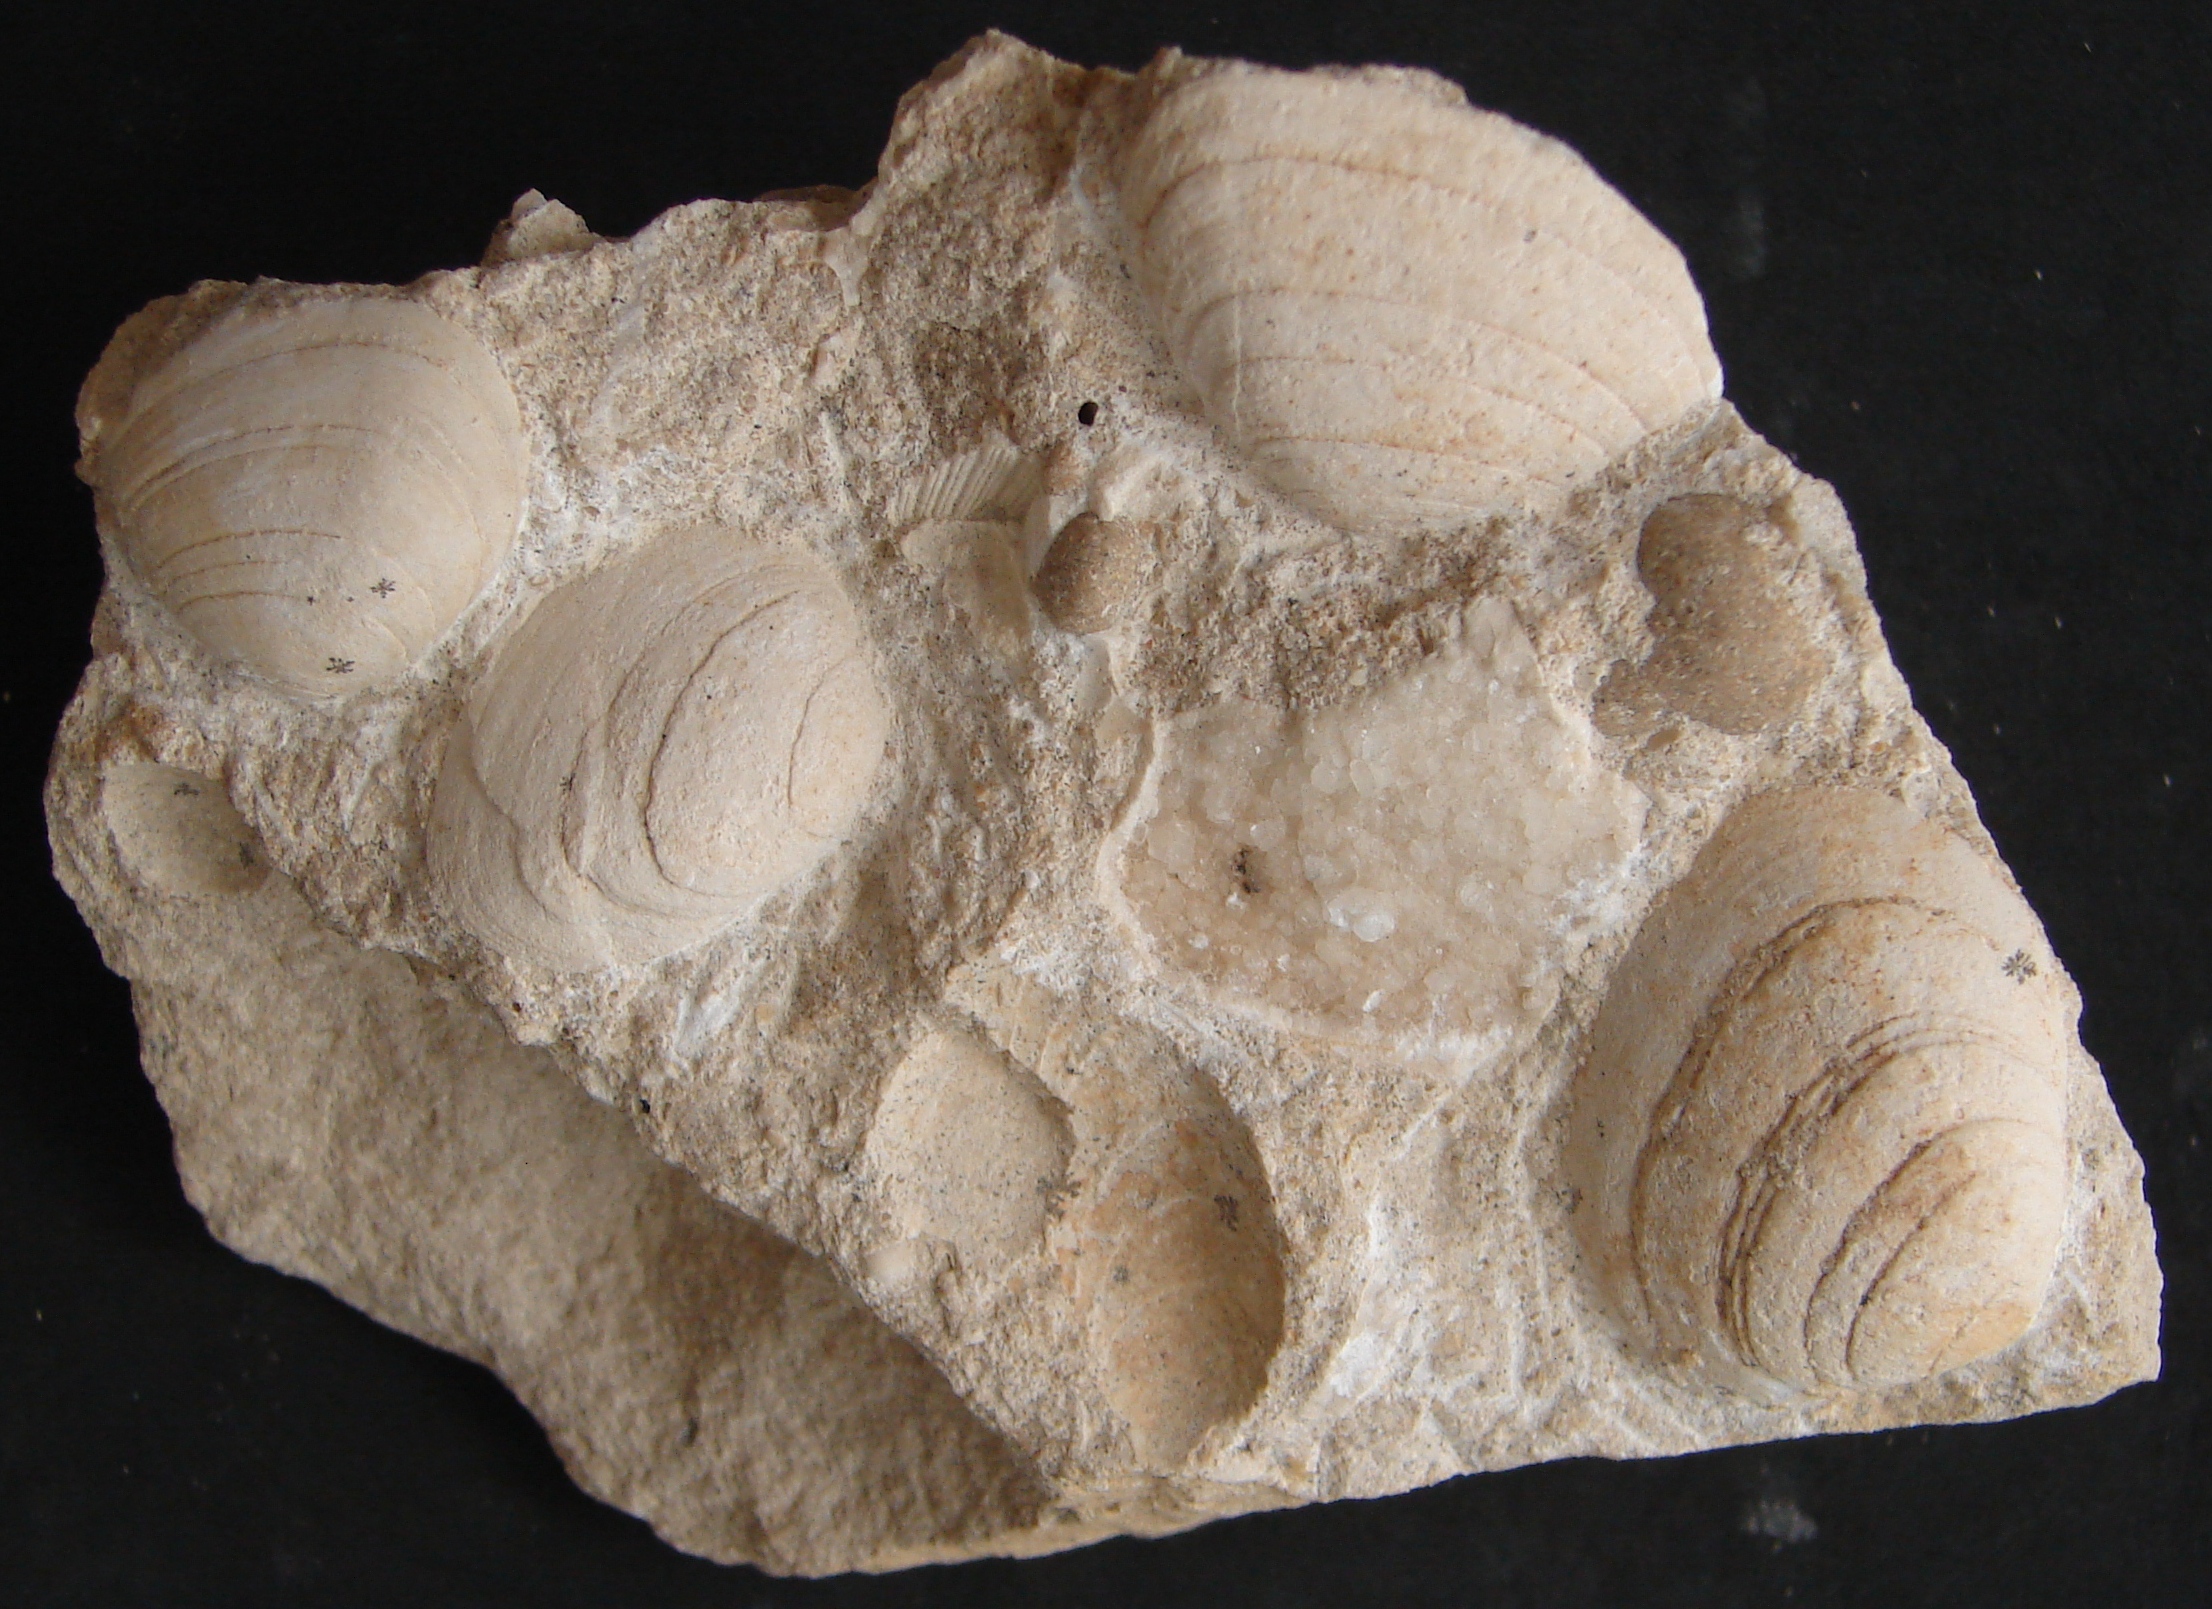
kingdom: Animalia
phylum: Mollusca
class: Bivalvia
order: Carditida
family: Cardiniidae
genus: Cardinia
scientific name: Cardinia
